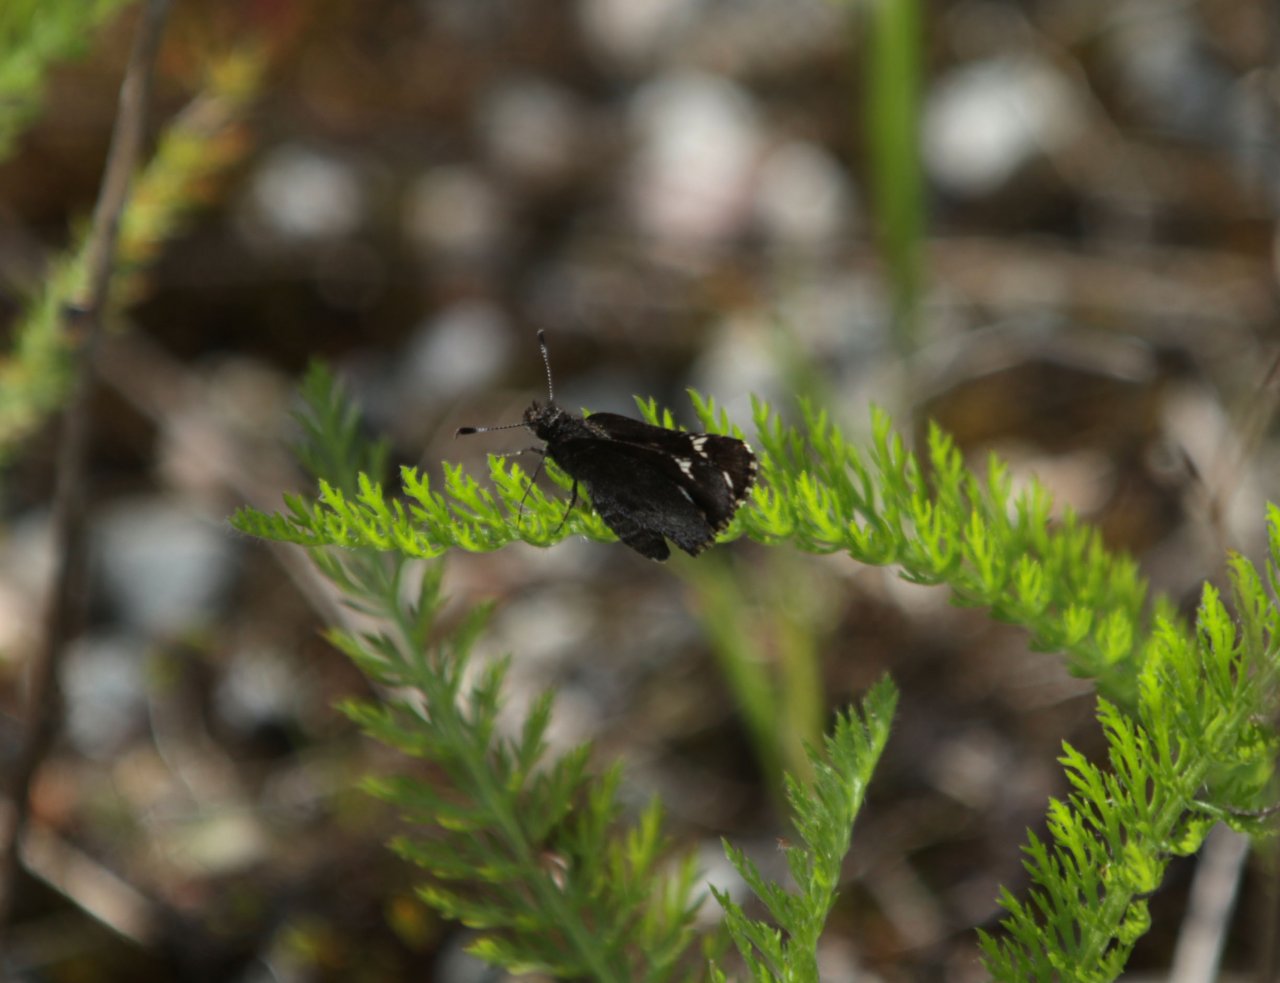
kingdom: Animalia
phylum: Arthropoda
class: Insecta
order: Lepidoptera
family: Hesperiidae
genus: Mastor
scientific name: Mastor vialis
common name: Common Roadside-Skipper
